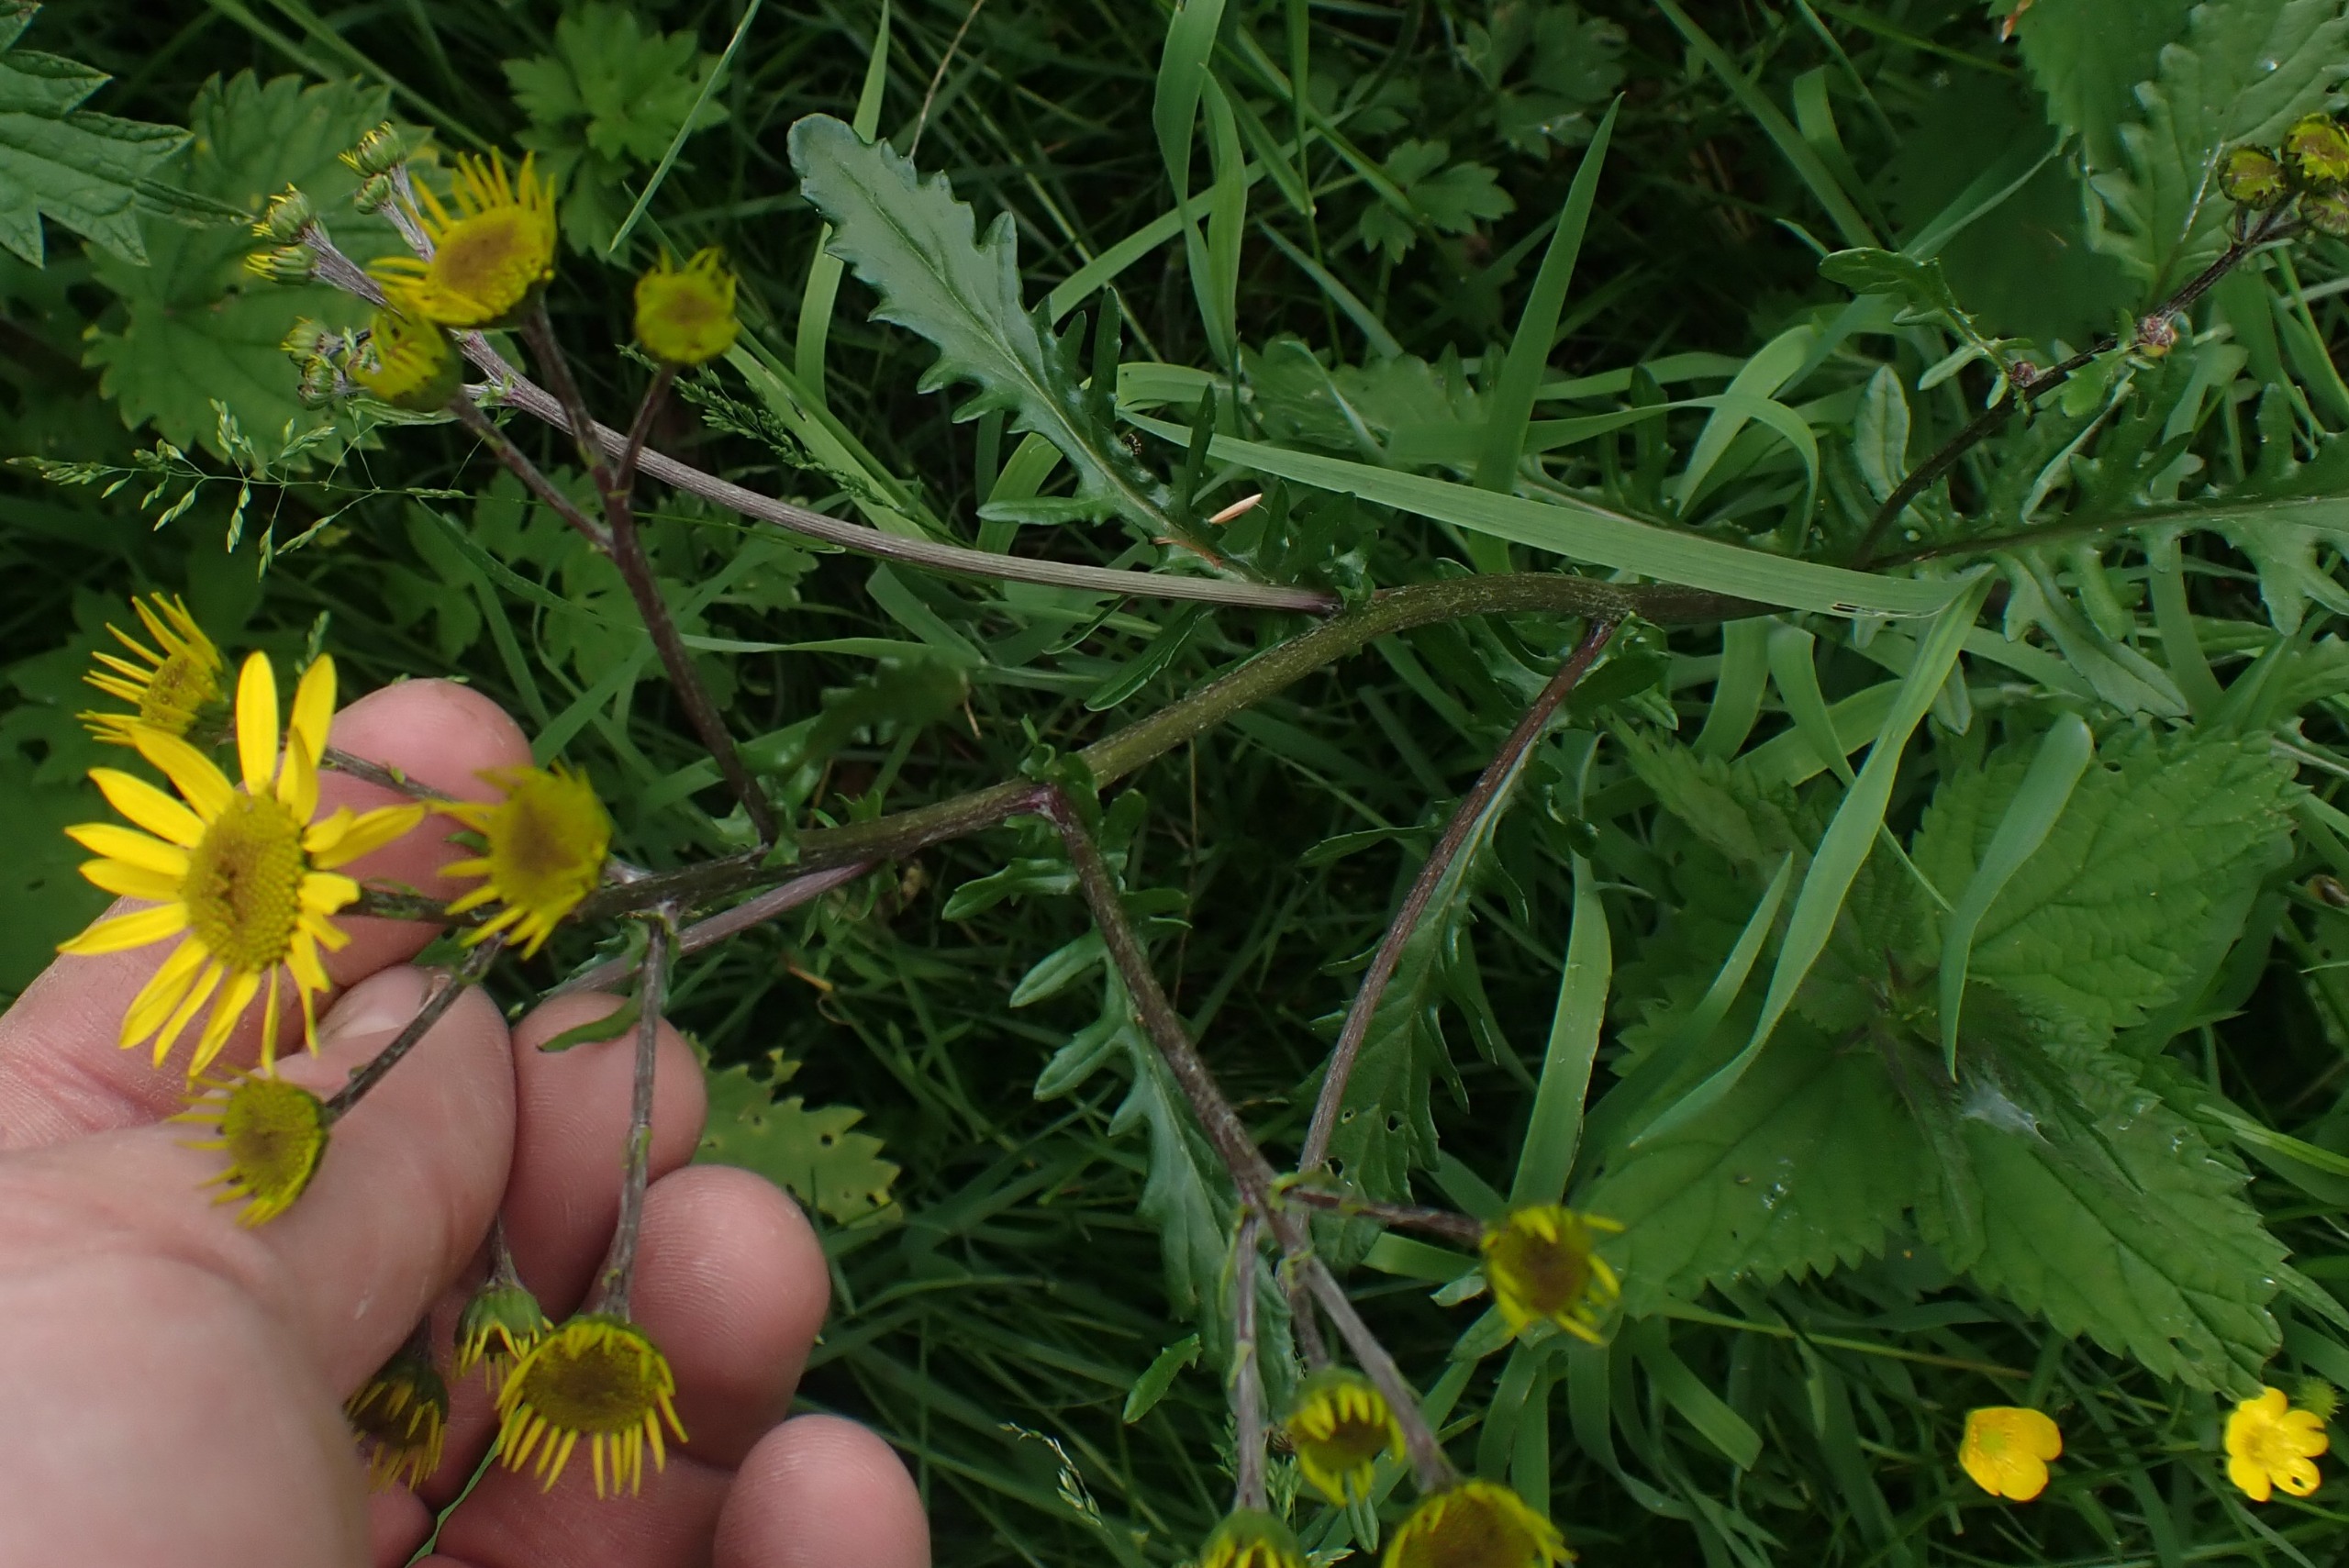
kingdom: Plantae
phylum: Tracheophyta
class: Magnoliopsida
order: Asterales
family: Asteraceae
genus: Jacobaea
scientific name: Jacobaea aquatica
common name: Vand-brandbæger
